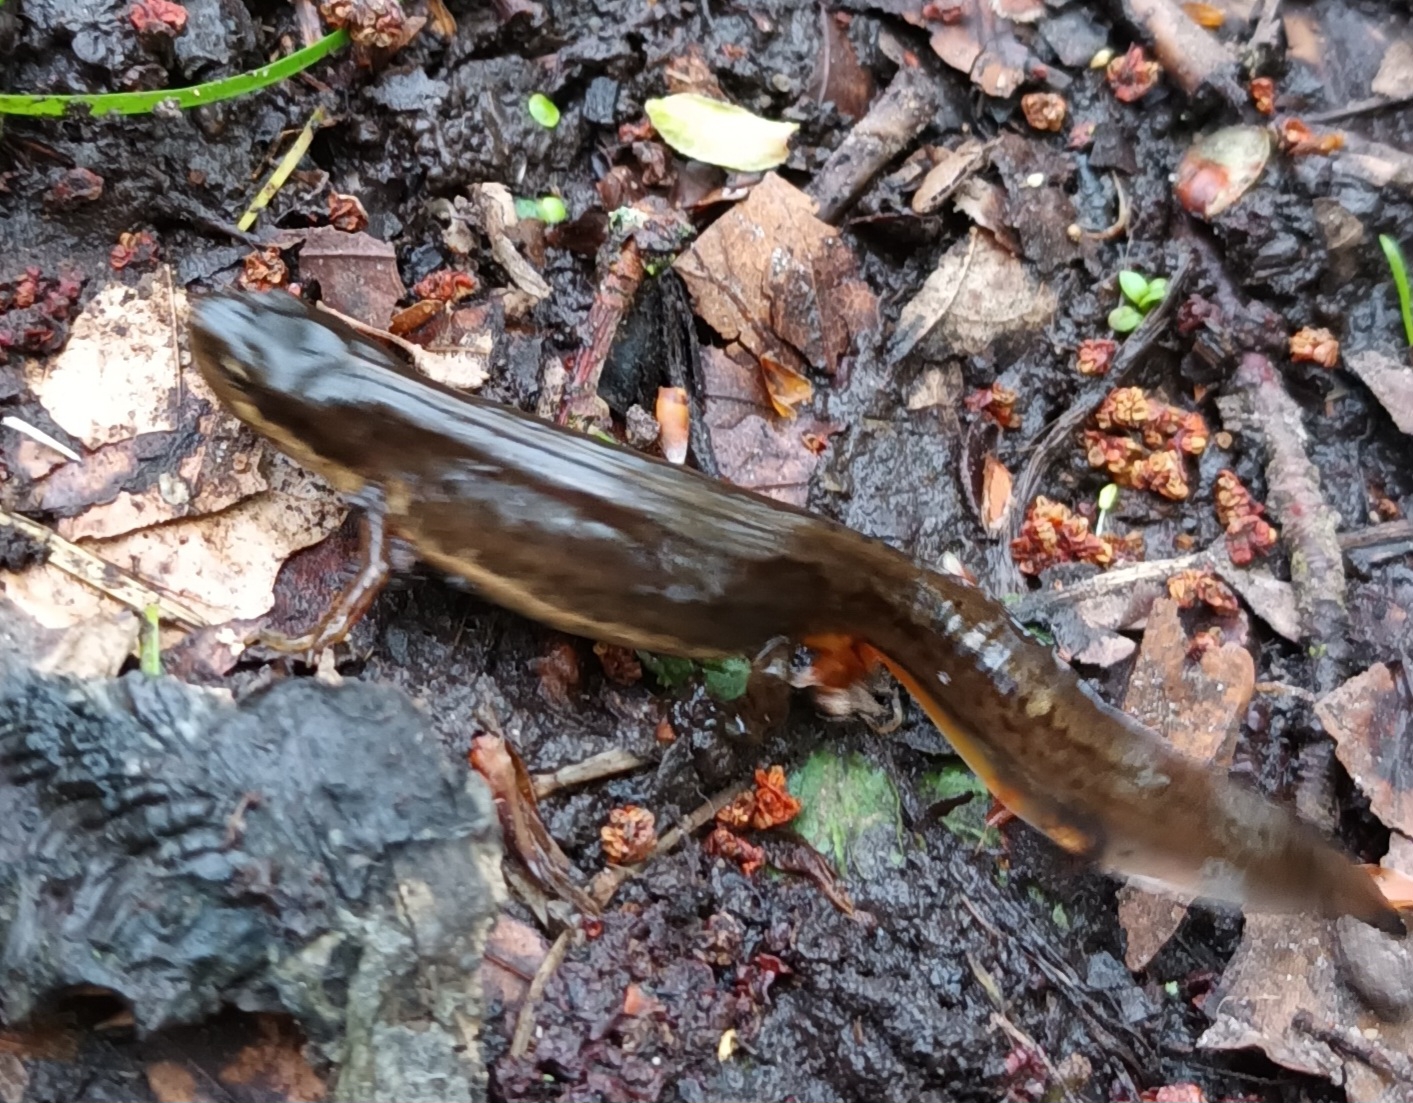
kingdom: Animalia
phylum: Chordata
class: Amphibia
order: Caudata
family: Salamandridae
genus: Lissotriton
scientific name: Lissotriton vulgaris
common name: Lille vandsalamander
